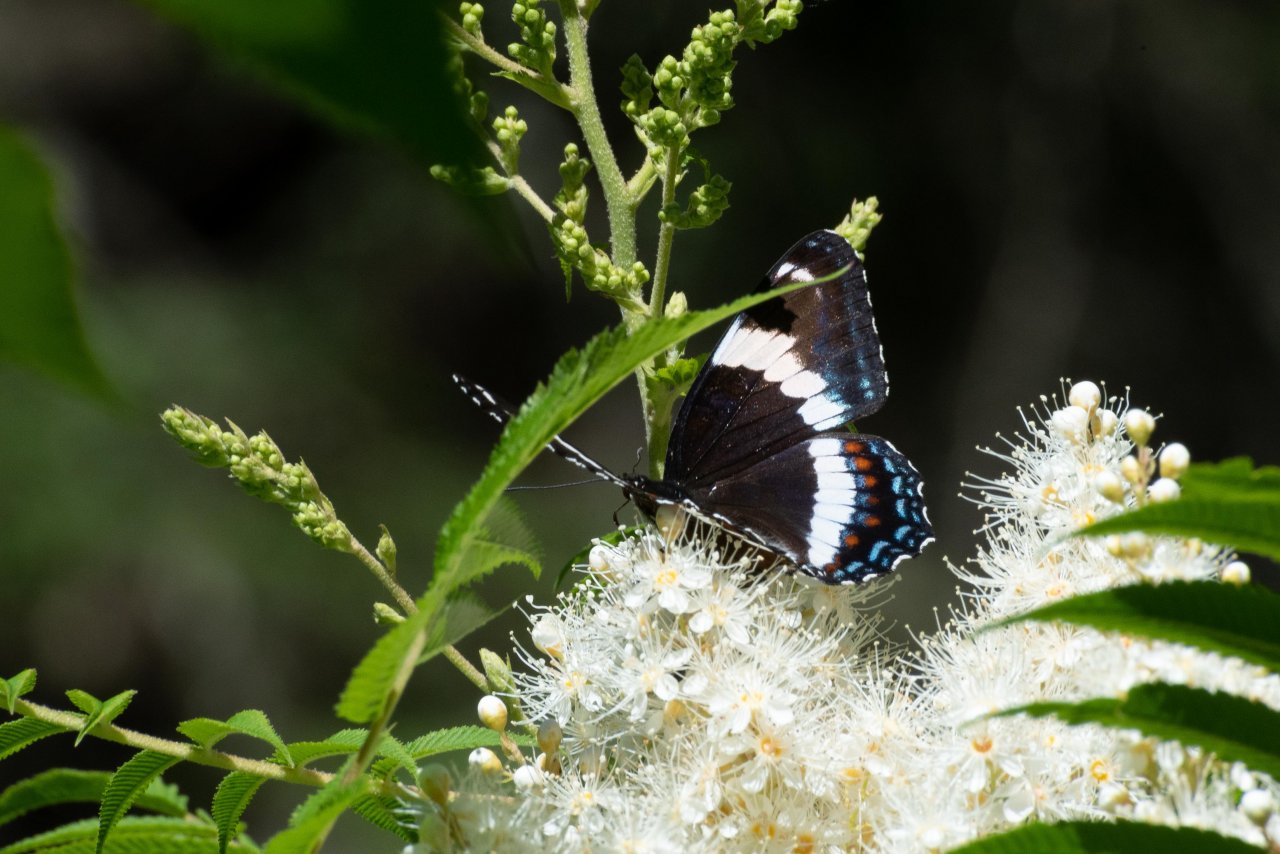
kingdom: Animalia
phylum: Arthropoda
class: Insecta
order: Lepidoptera
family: Nymphalidae
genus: Limenitis
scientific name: Limenitis arthemis
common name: Red-spotted Admiral
